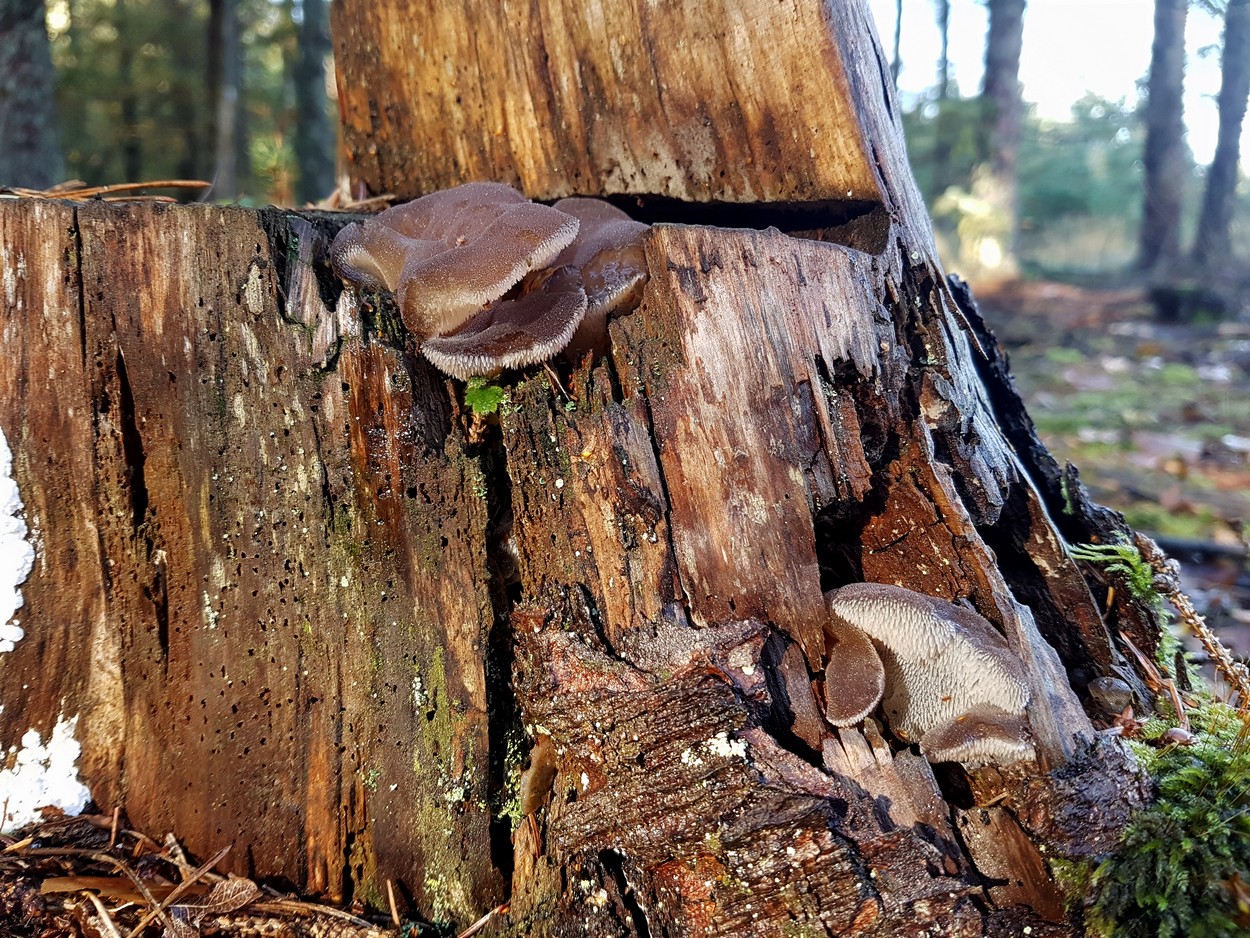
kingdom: Fungi
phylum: Basidiomycota
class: Agaricomycetes
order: Auriculariales
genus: Pseudohydnum
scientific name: Pseudohydnum gelatinosum
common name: bævretand
